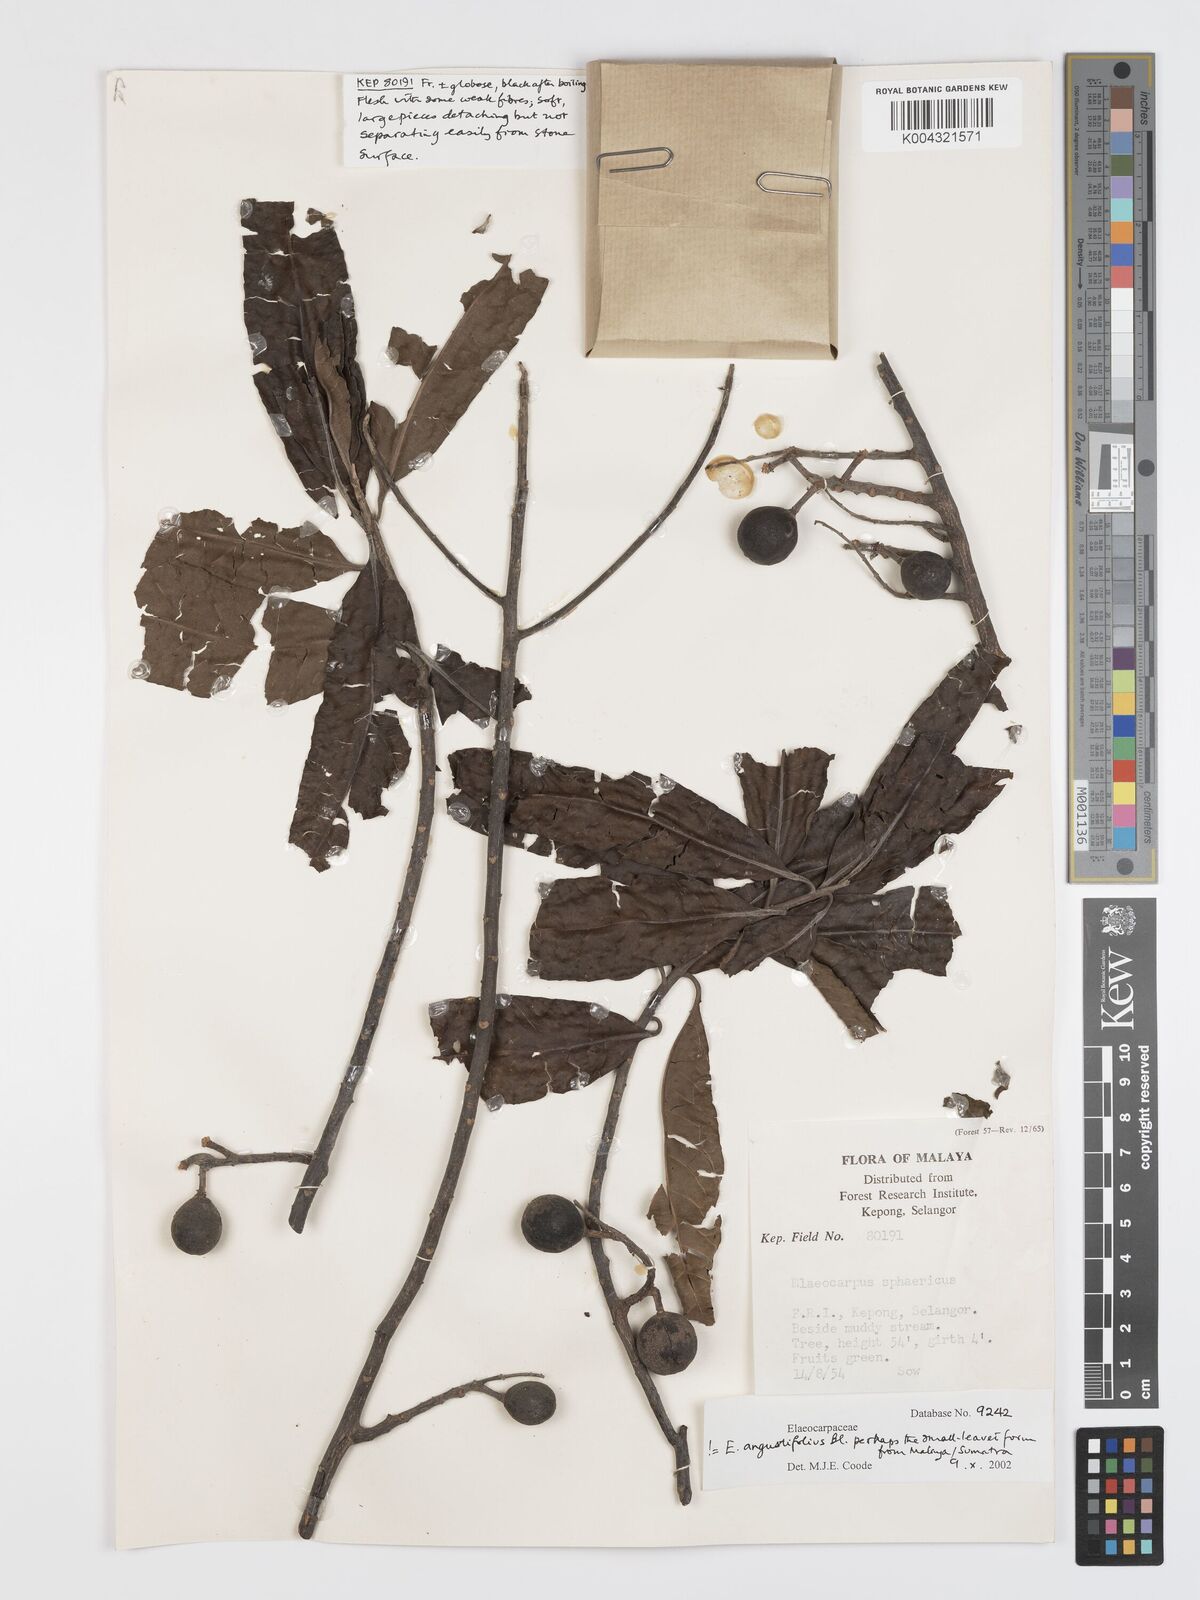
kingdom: Plantae
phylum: Tracheophyta
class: Magnoliopsida
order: Oxalidales
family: Elaeocarpaceae
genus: Elaeocarpus
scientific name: Elaeocarpus sphaericus
